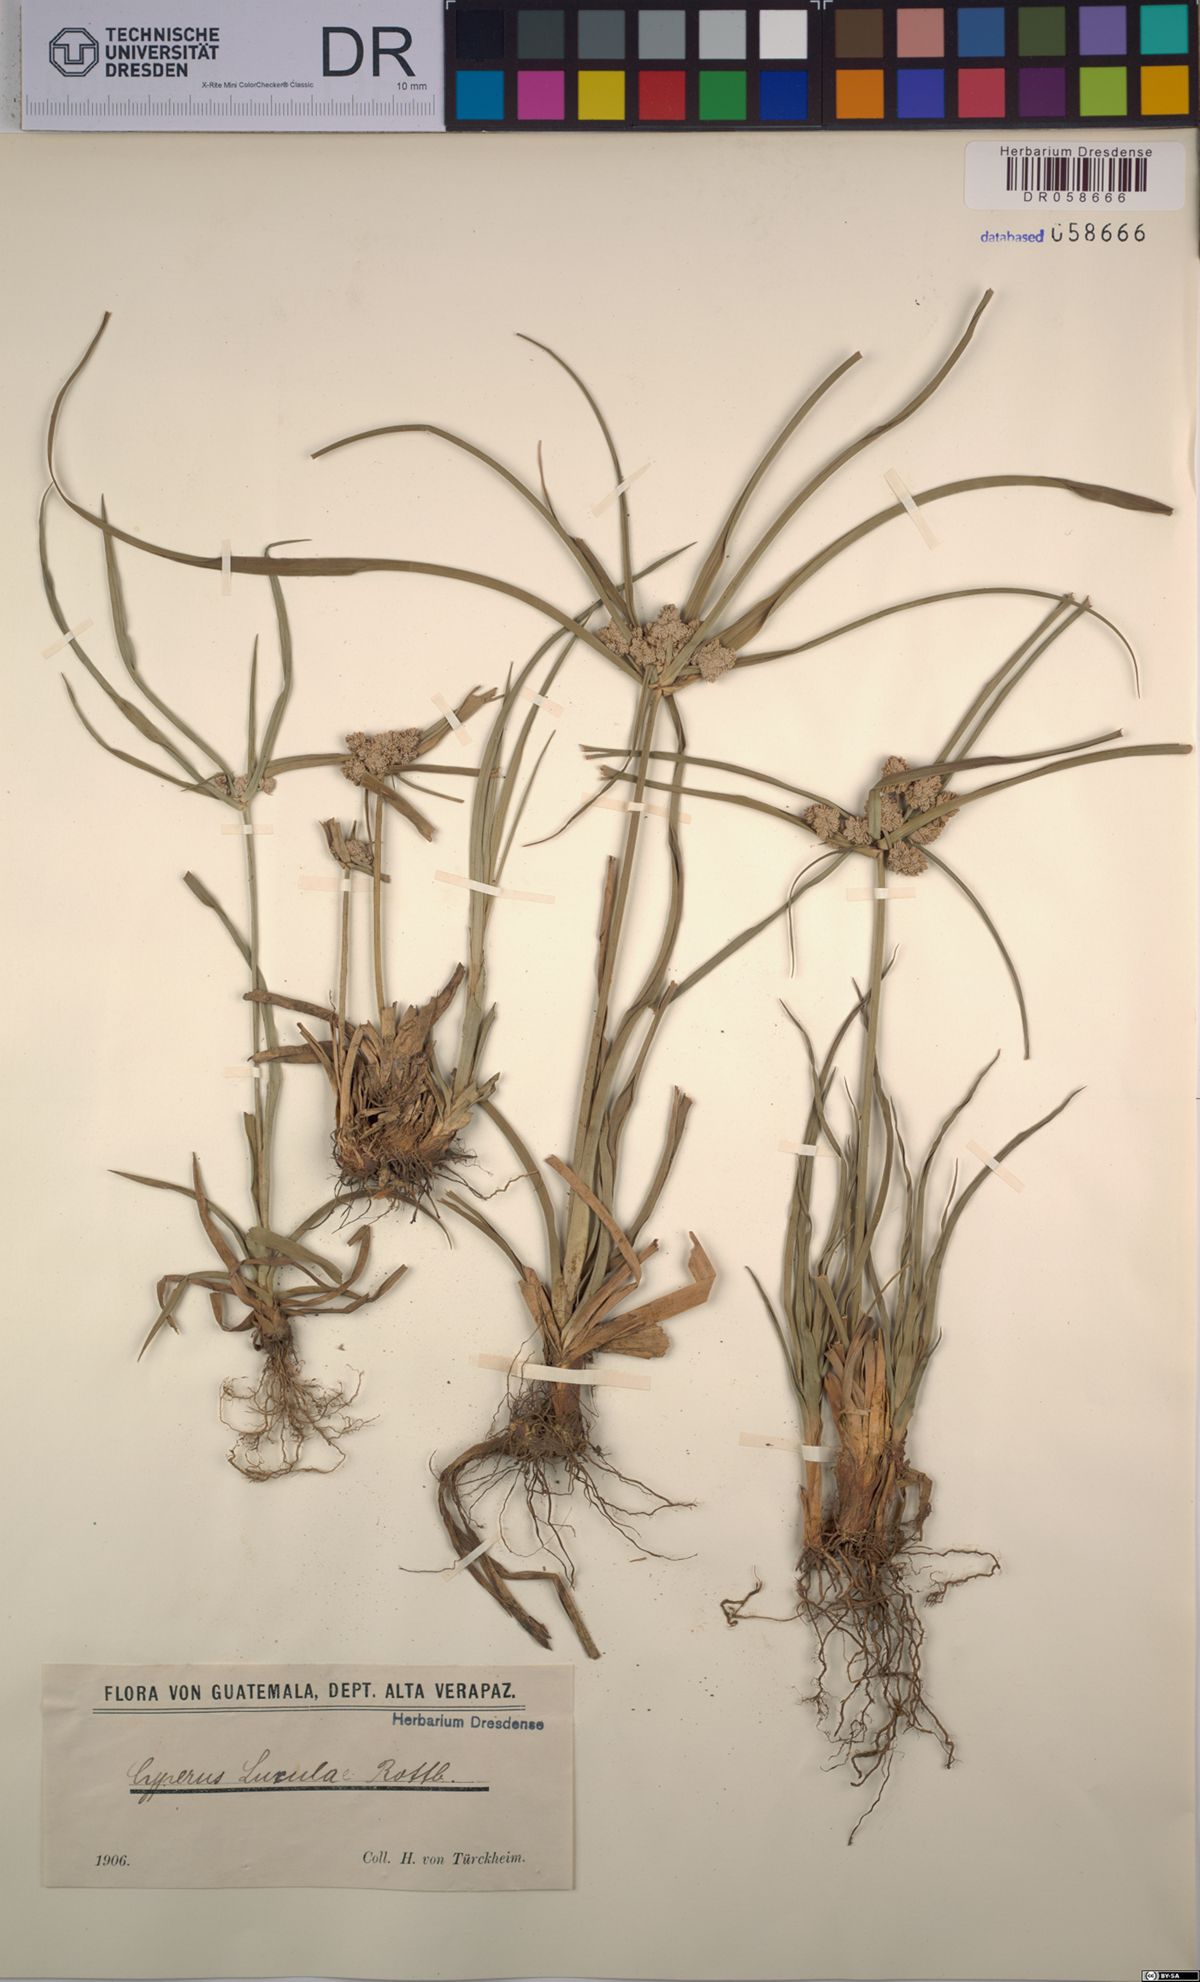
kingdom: Plantae
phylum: Tracheophyta
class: Liliopsida
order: Poales
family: Cyperaceae
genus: Cyperus
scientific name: Cyperus luzulae
